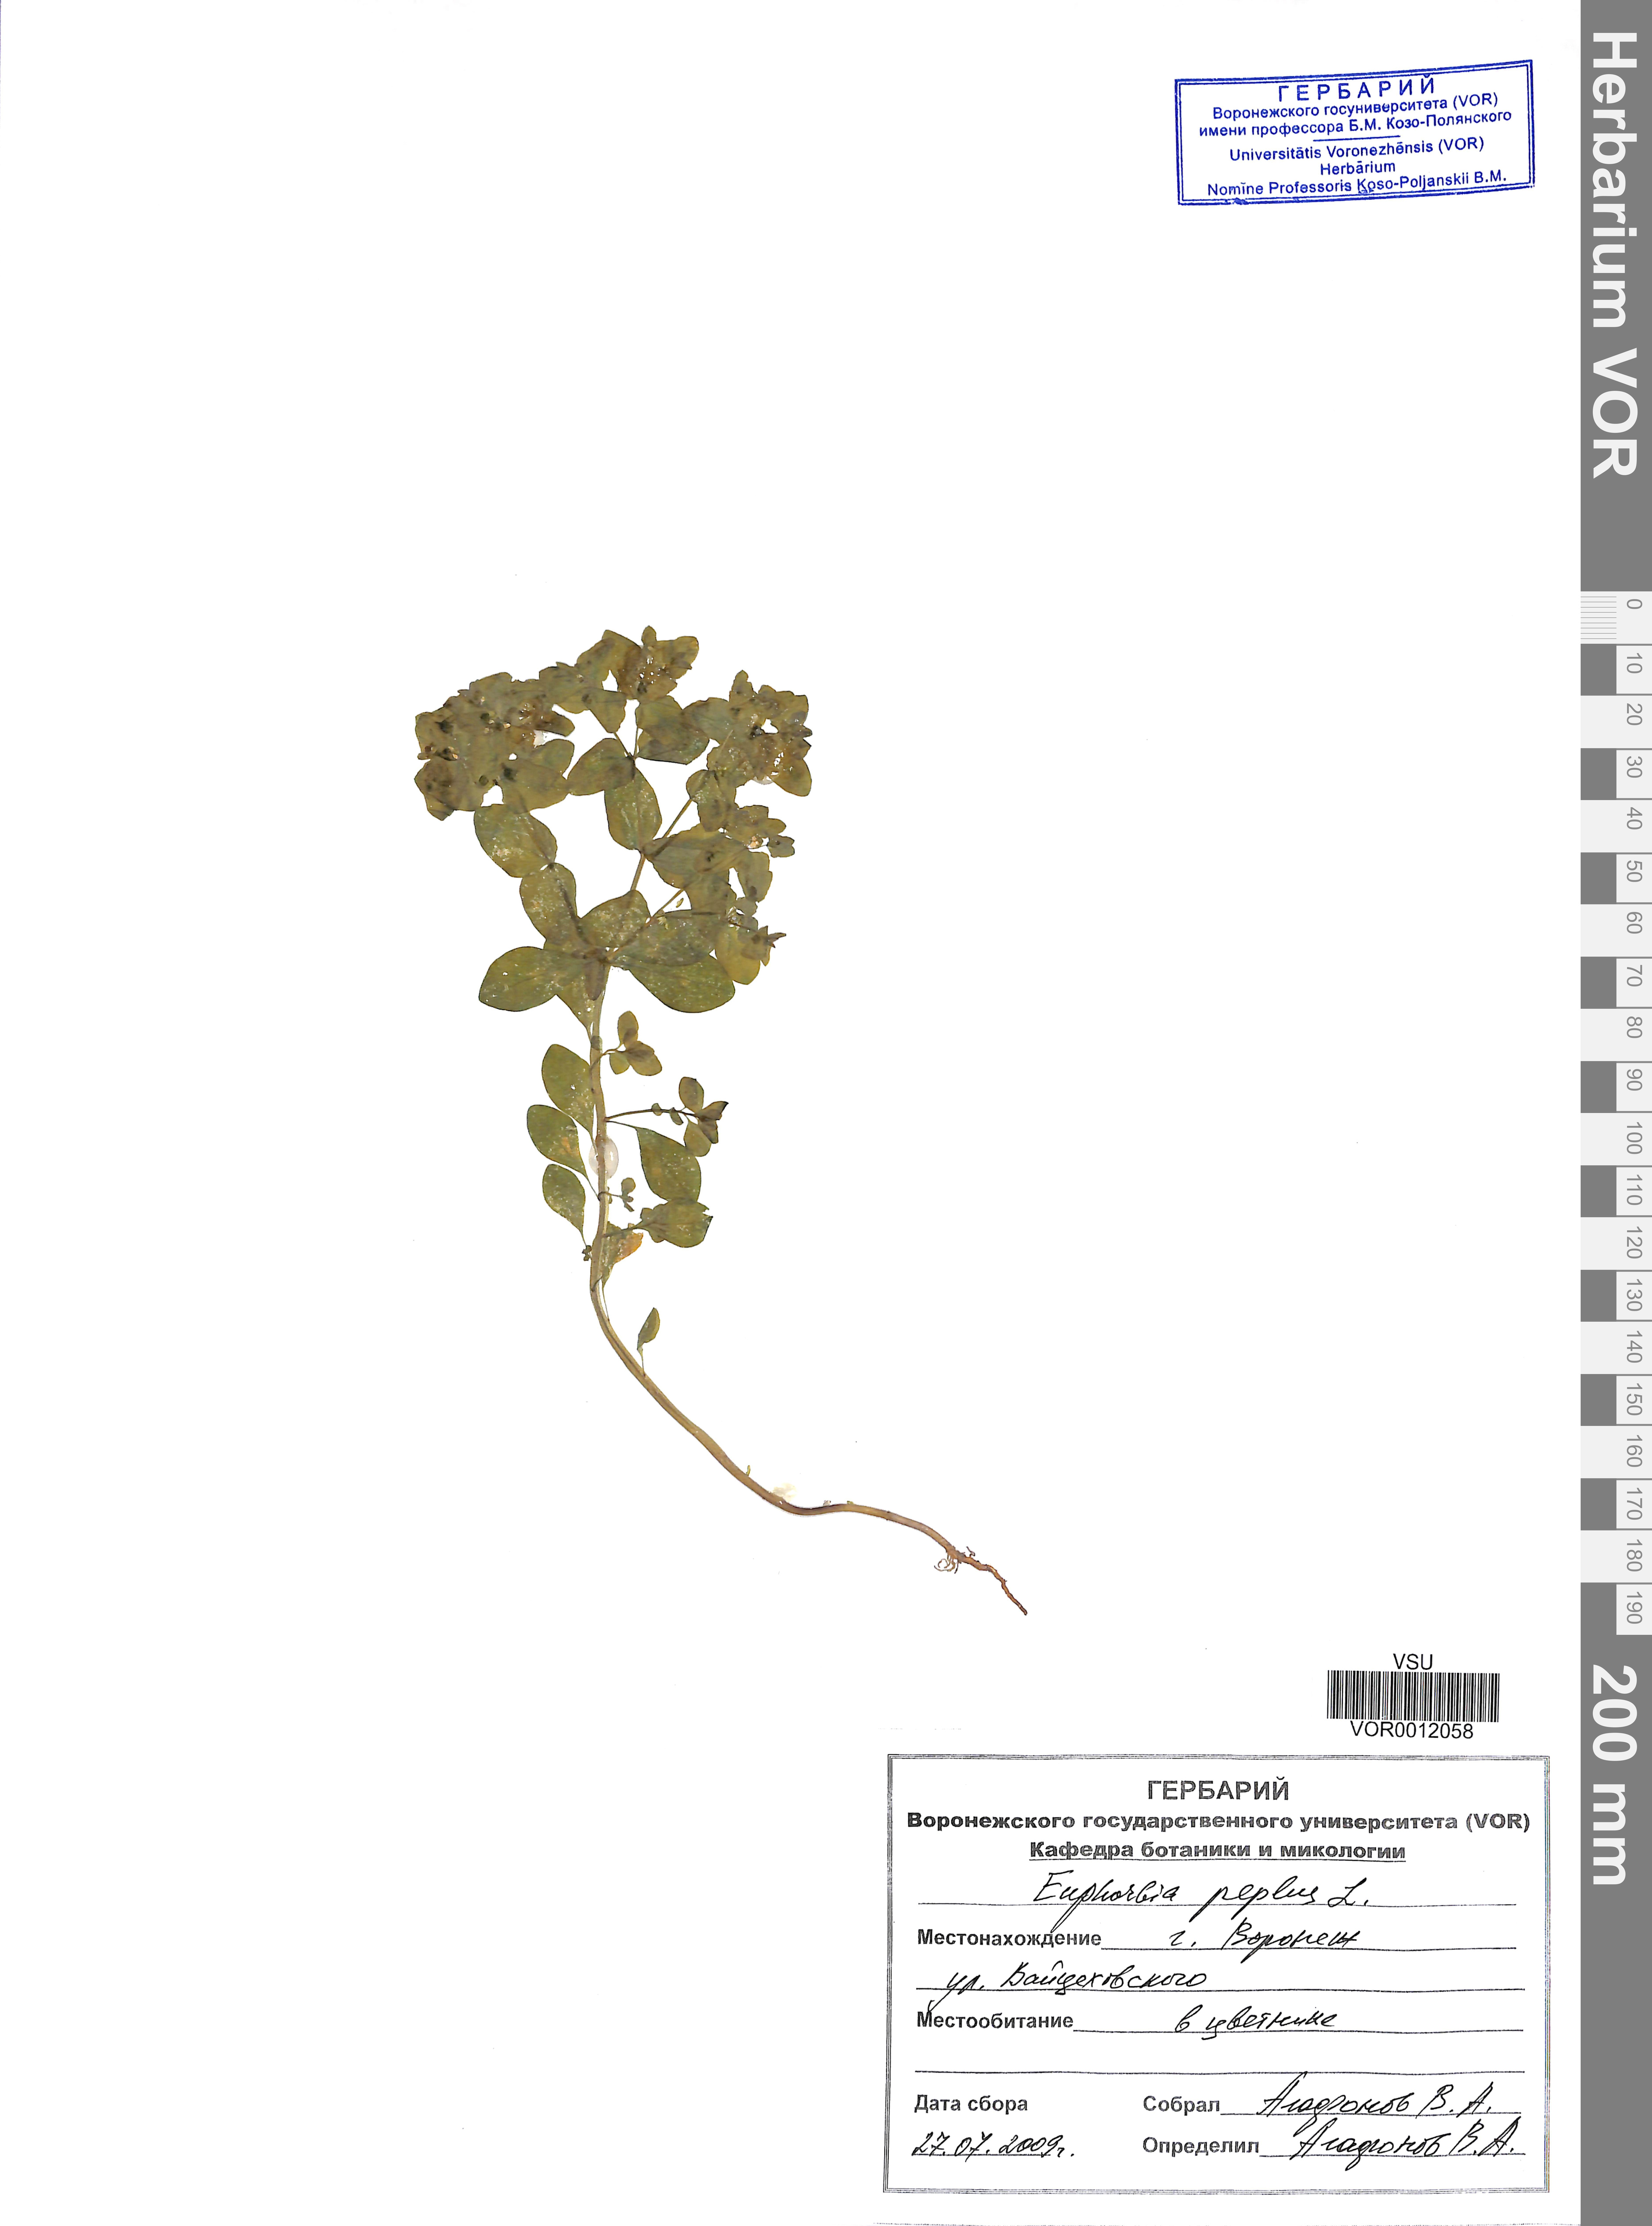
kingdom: Plantae
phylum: Tracheophyta
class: Magnoliopsida
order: Malpighiales
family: Euphorbiaceae
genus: Euphorbia
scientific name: Euphorbia peplus
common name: Petty spurge
